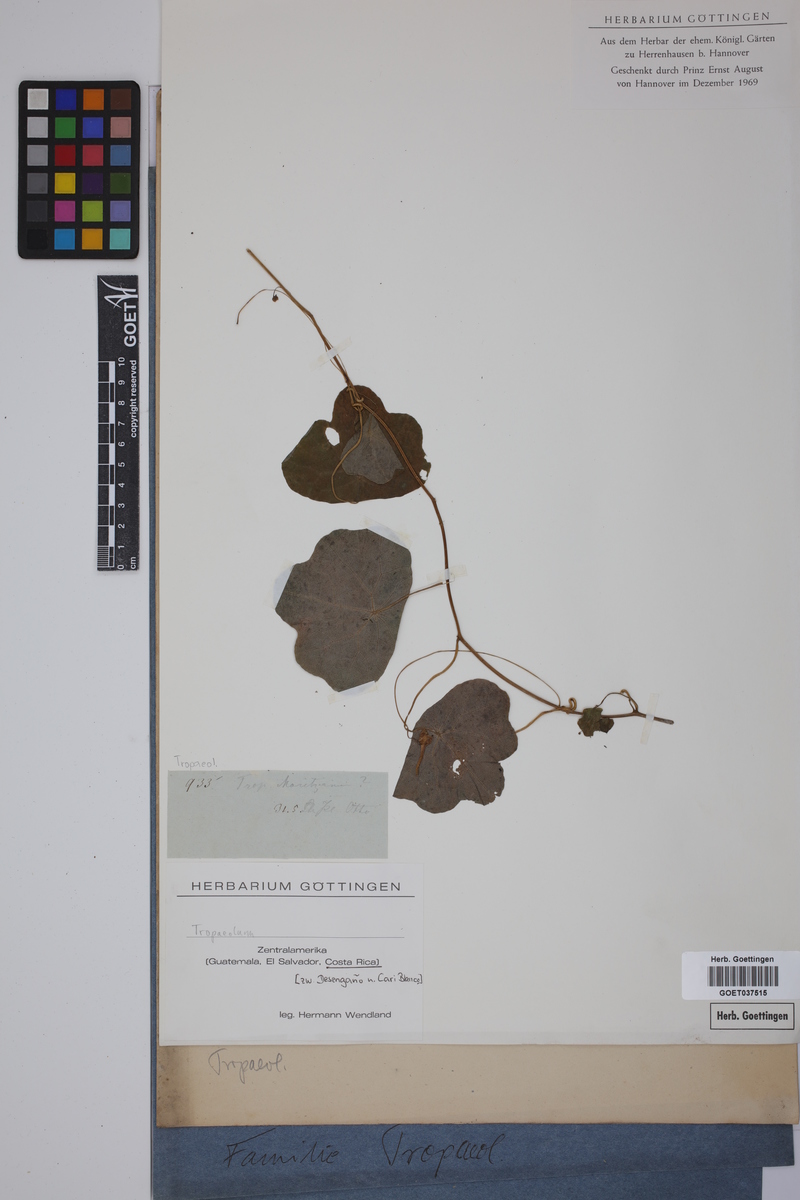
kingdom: Plantae
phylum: Tracheophyta
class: Magnoliopsida
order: Brassicales
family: Tropaeolaceae
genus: Tropaeolum
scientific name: Tropaeolum moritzianum
